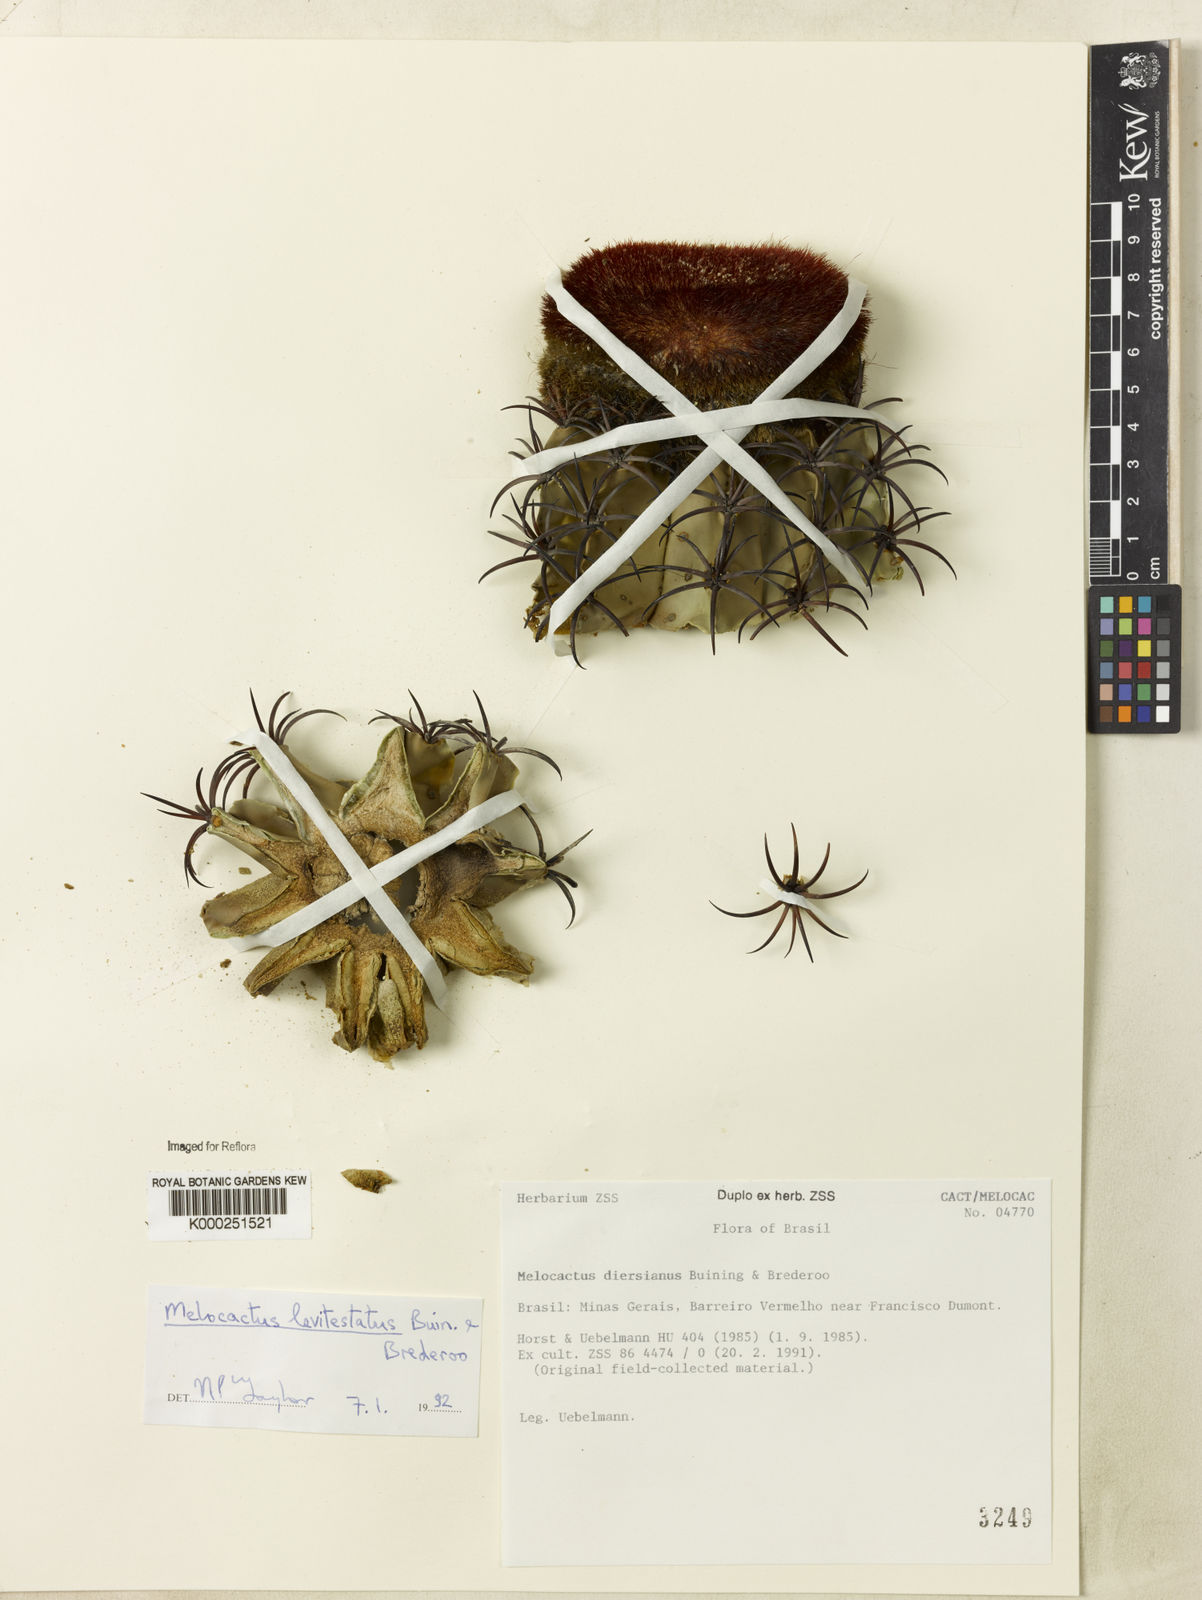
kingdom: Plantae
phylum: Tracheophyta
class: Magnoliopsida
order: Caryophyllales
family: Cactaceae
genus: Melocactus
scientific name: Melocactus levitestatus
